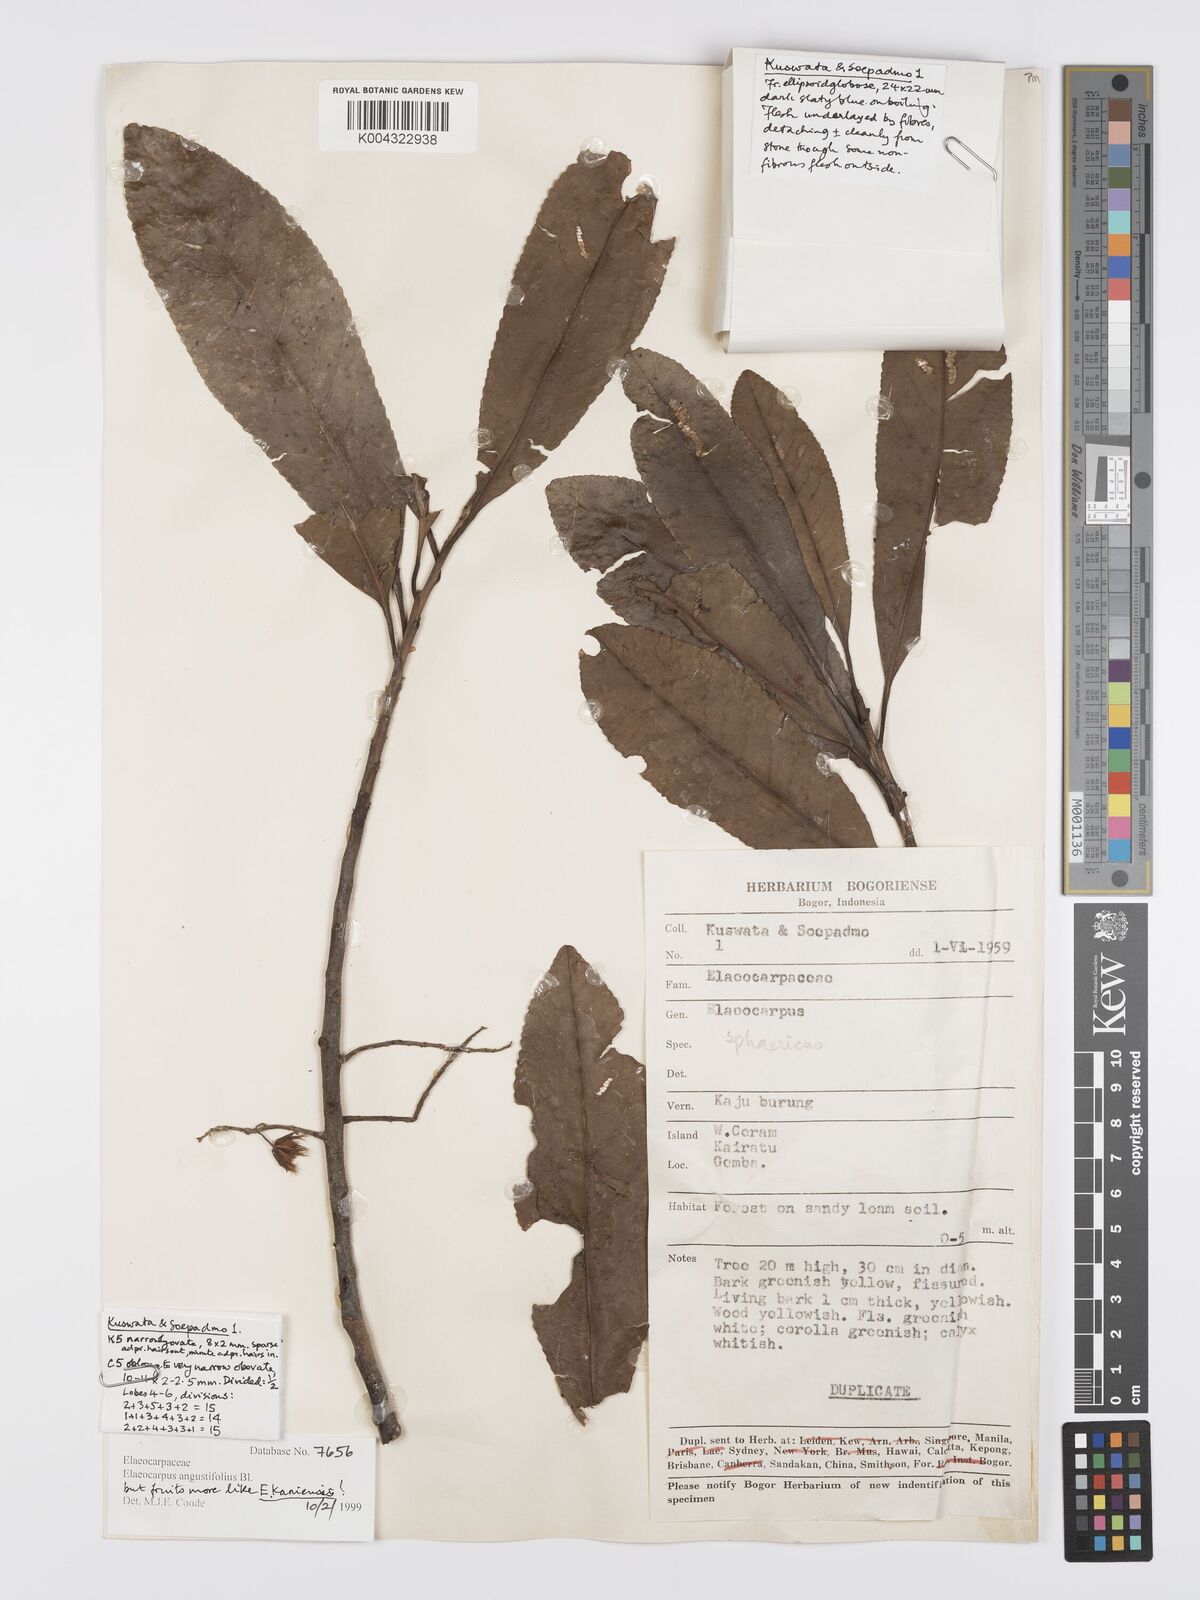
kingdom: Plantae
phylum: Tracheophyta
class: Magnoliopsida
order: Oxalidales
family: Elaeocarpaceae
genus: Elaeocarpus
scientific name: Elaeocarpus sphaericus
